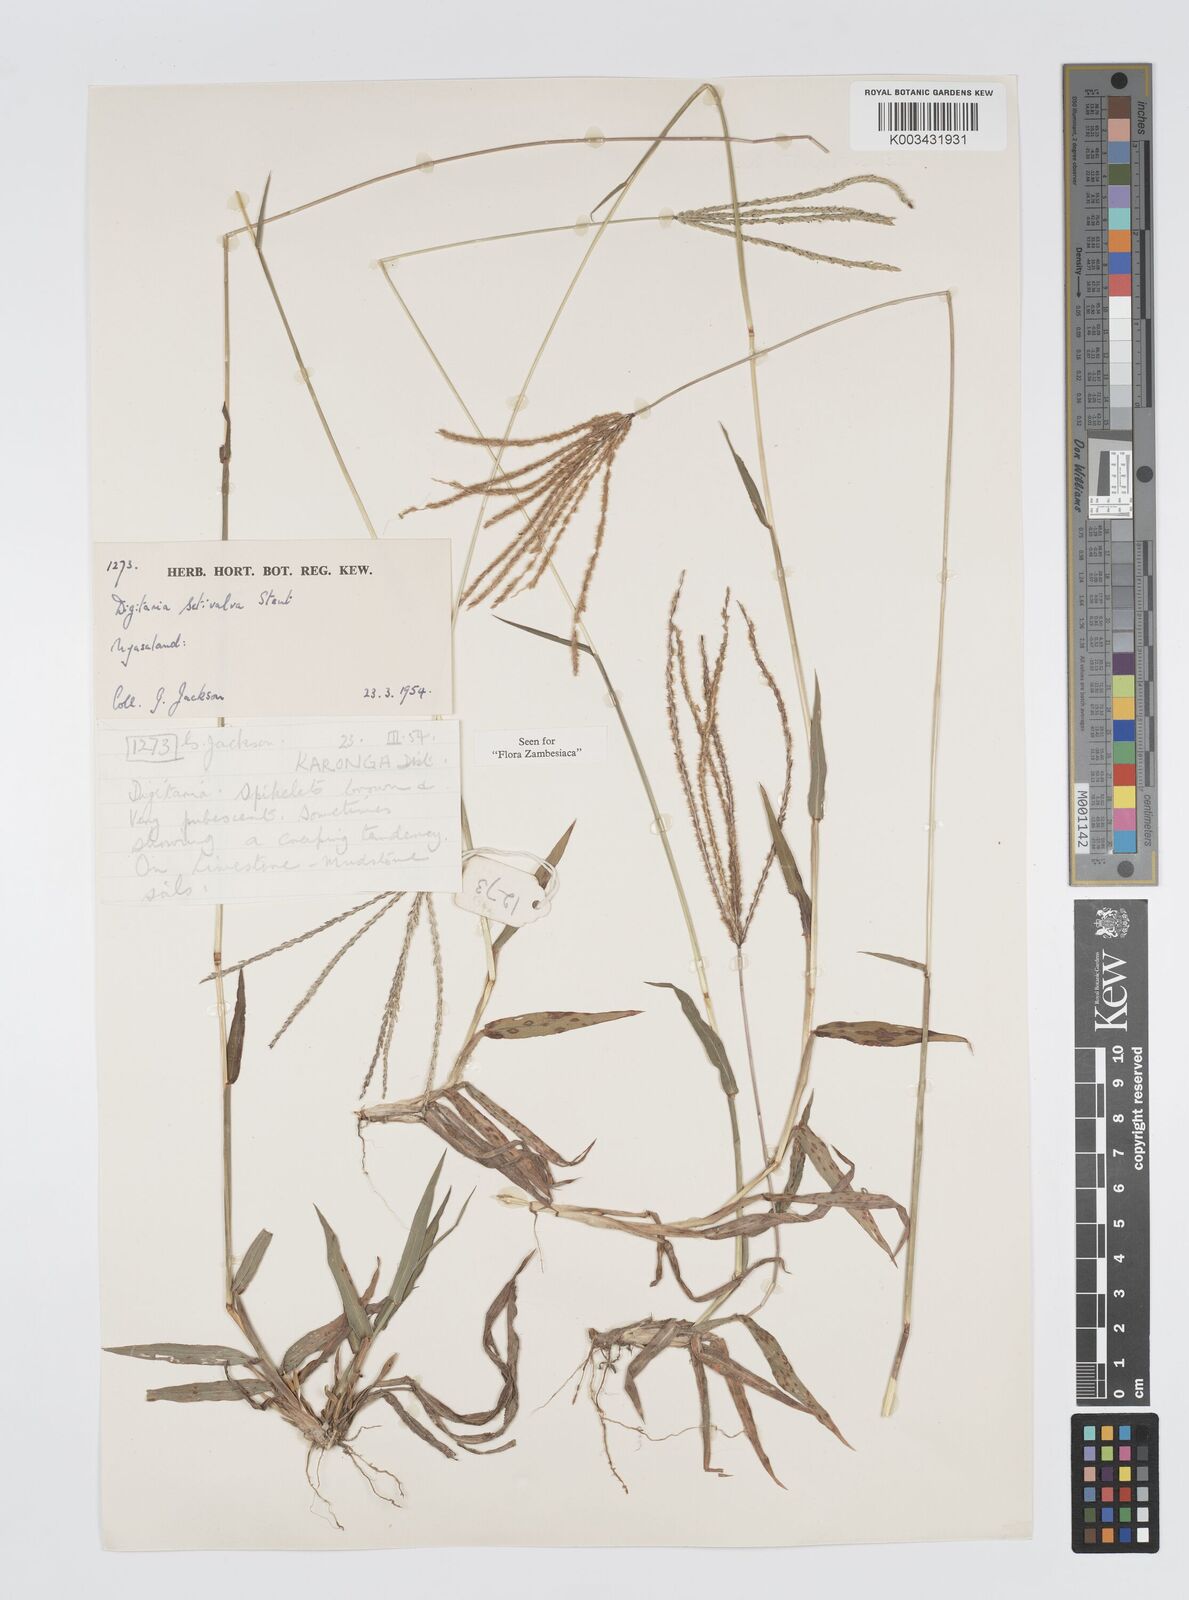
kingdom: Plantae
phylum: Tracheophyta
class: Liliopsida
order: Poales
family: Poaceae
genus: Digitaria
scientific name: Digitaria milanjiana
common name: Madagascar crabgrass
